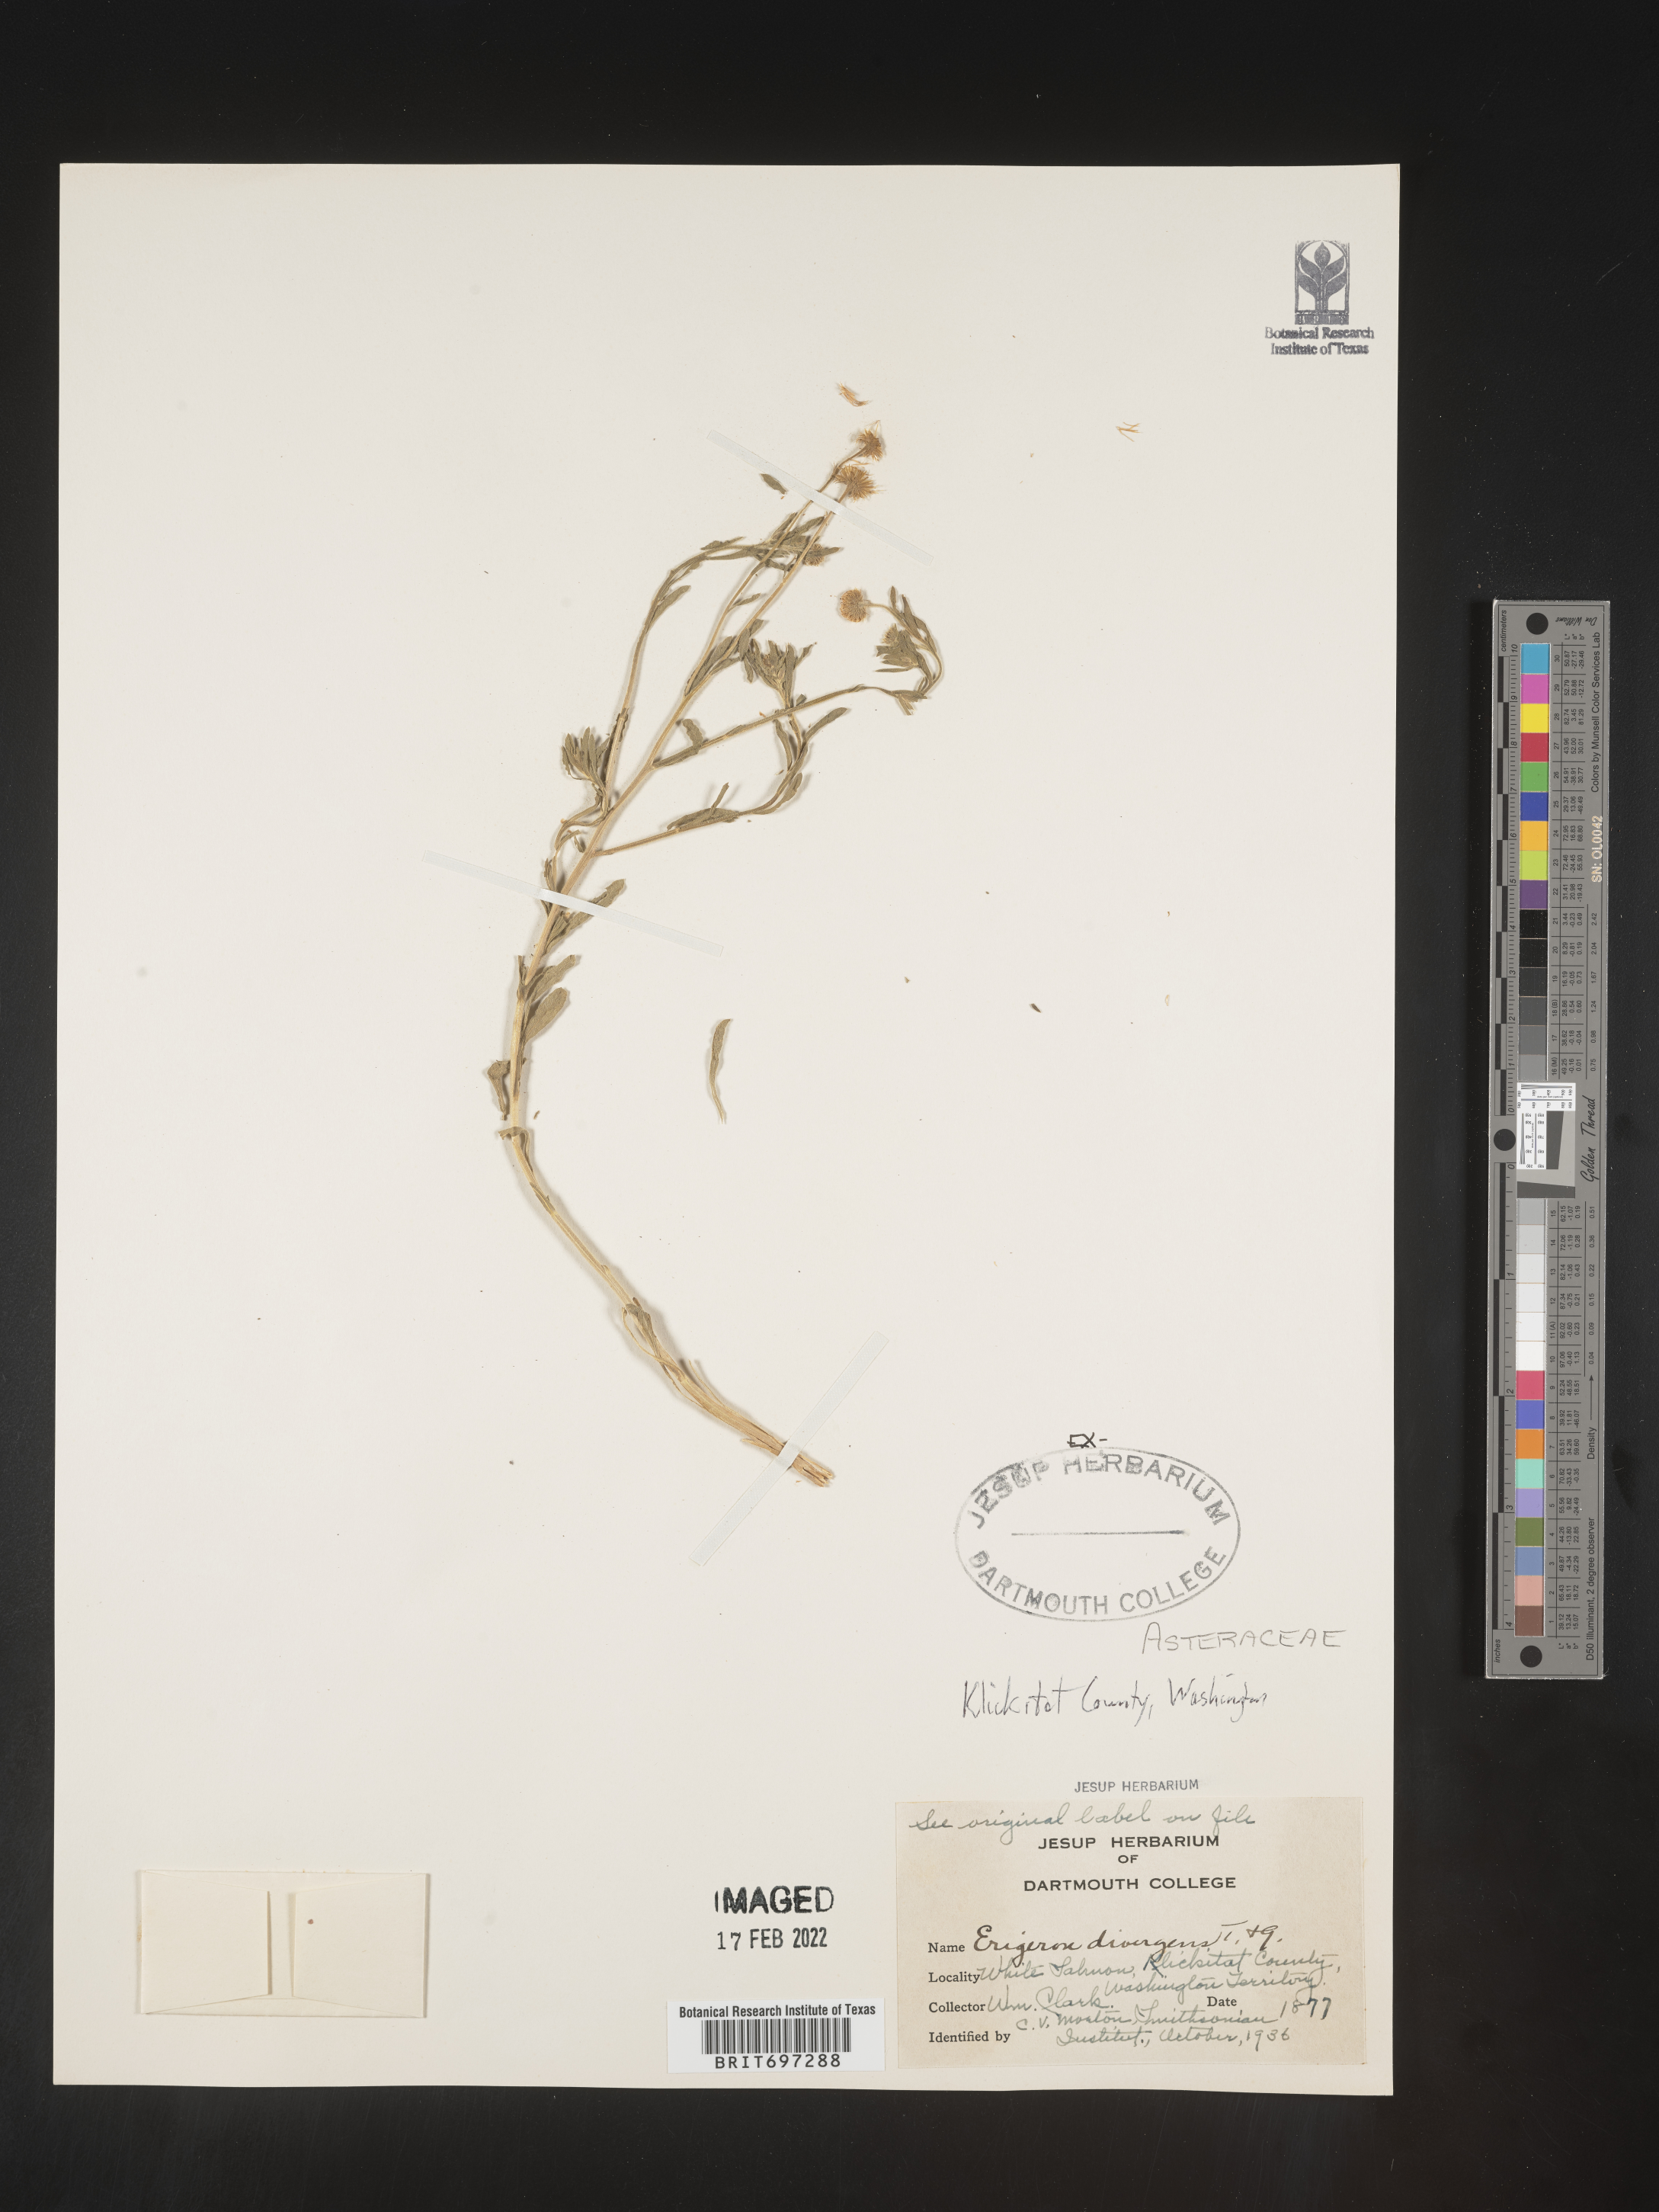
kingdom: Plantae
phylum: Tracheophyta
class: Magnoliopsida
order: Asterales
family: Asteraceae
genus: Erigeron
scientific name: Erigeron divergens
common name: Diffuse fleabane
